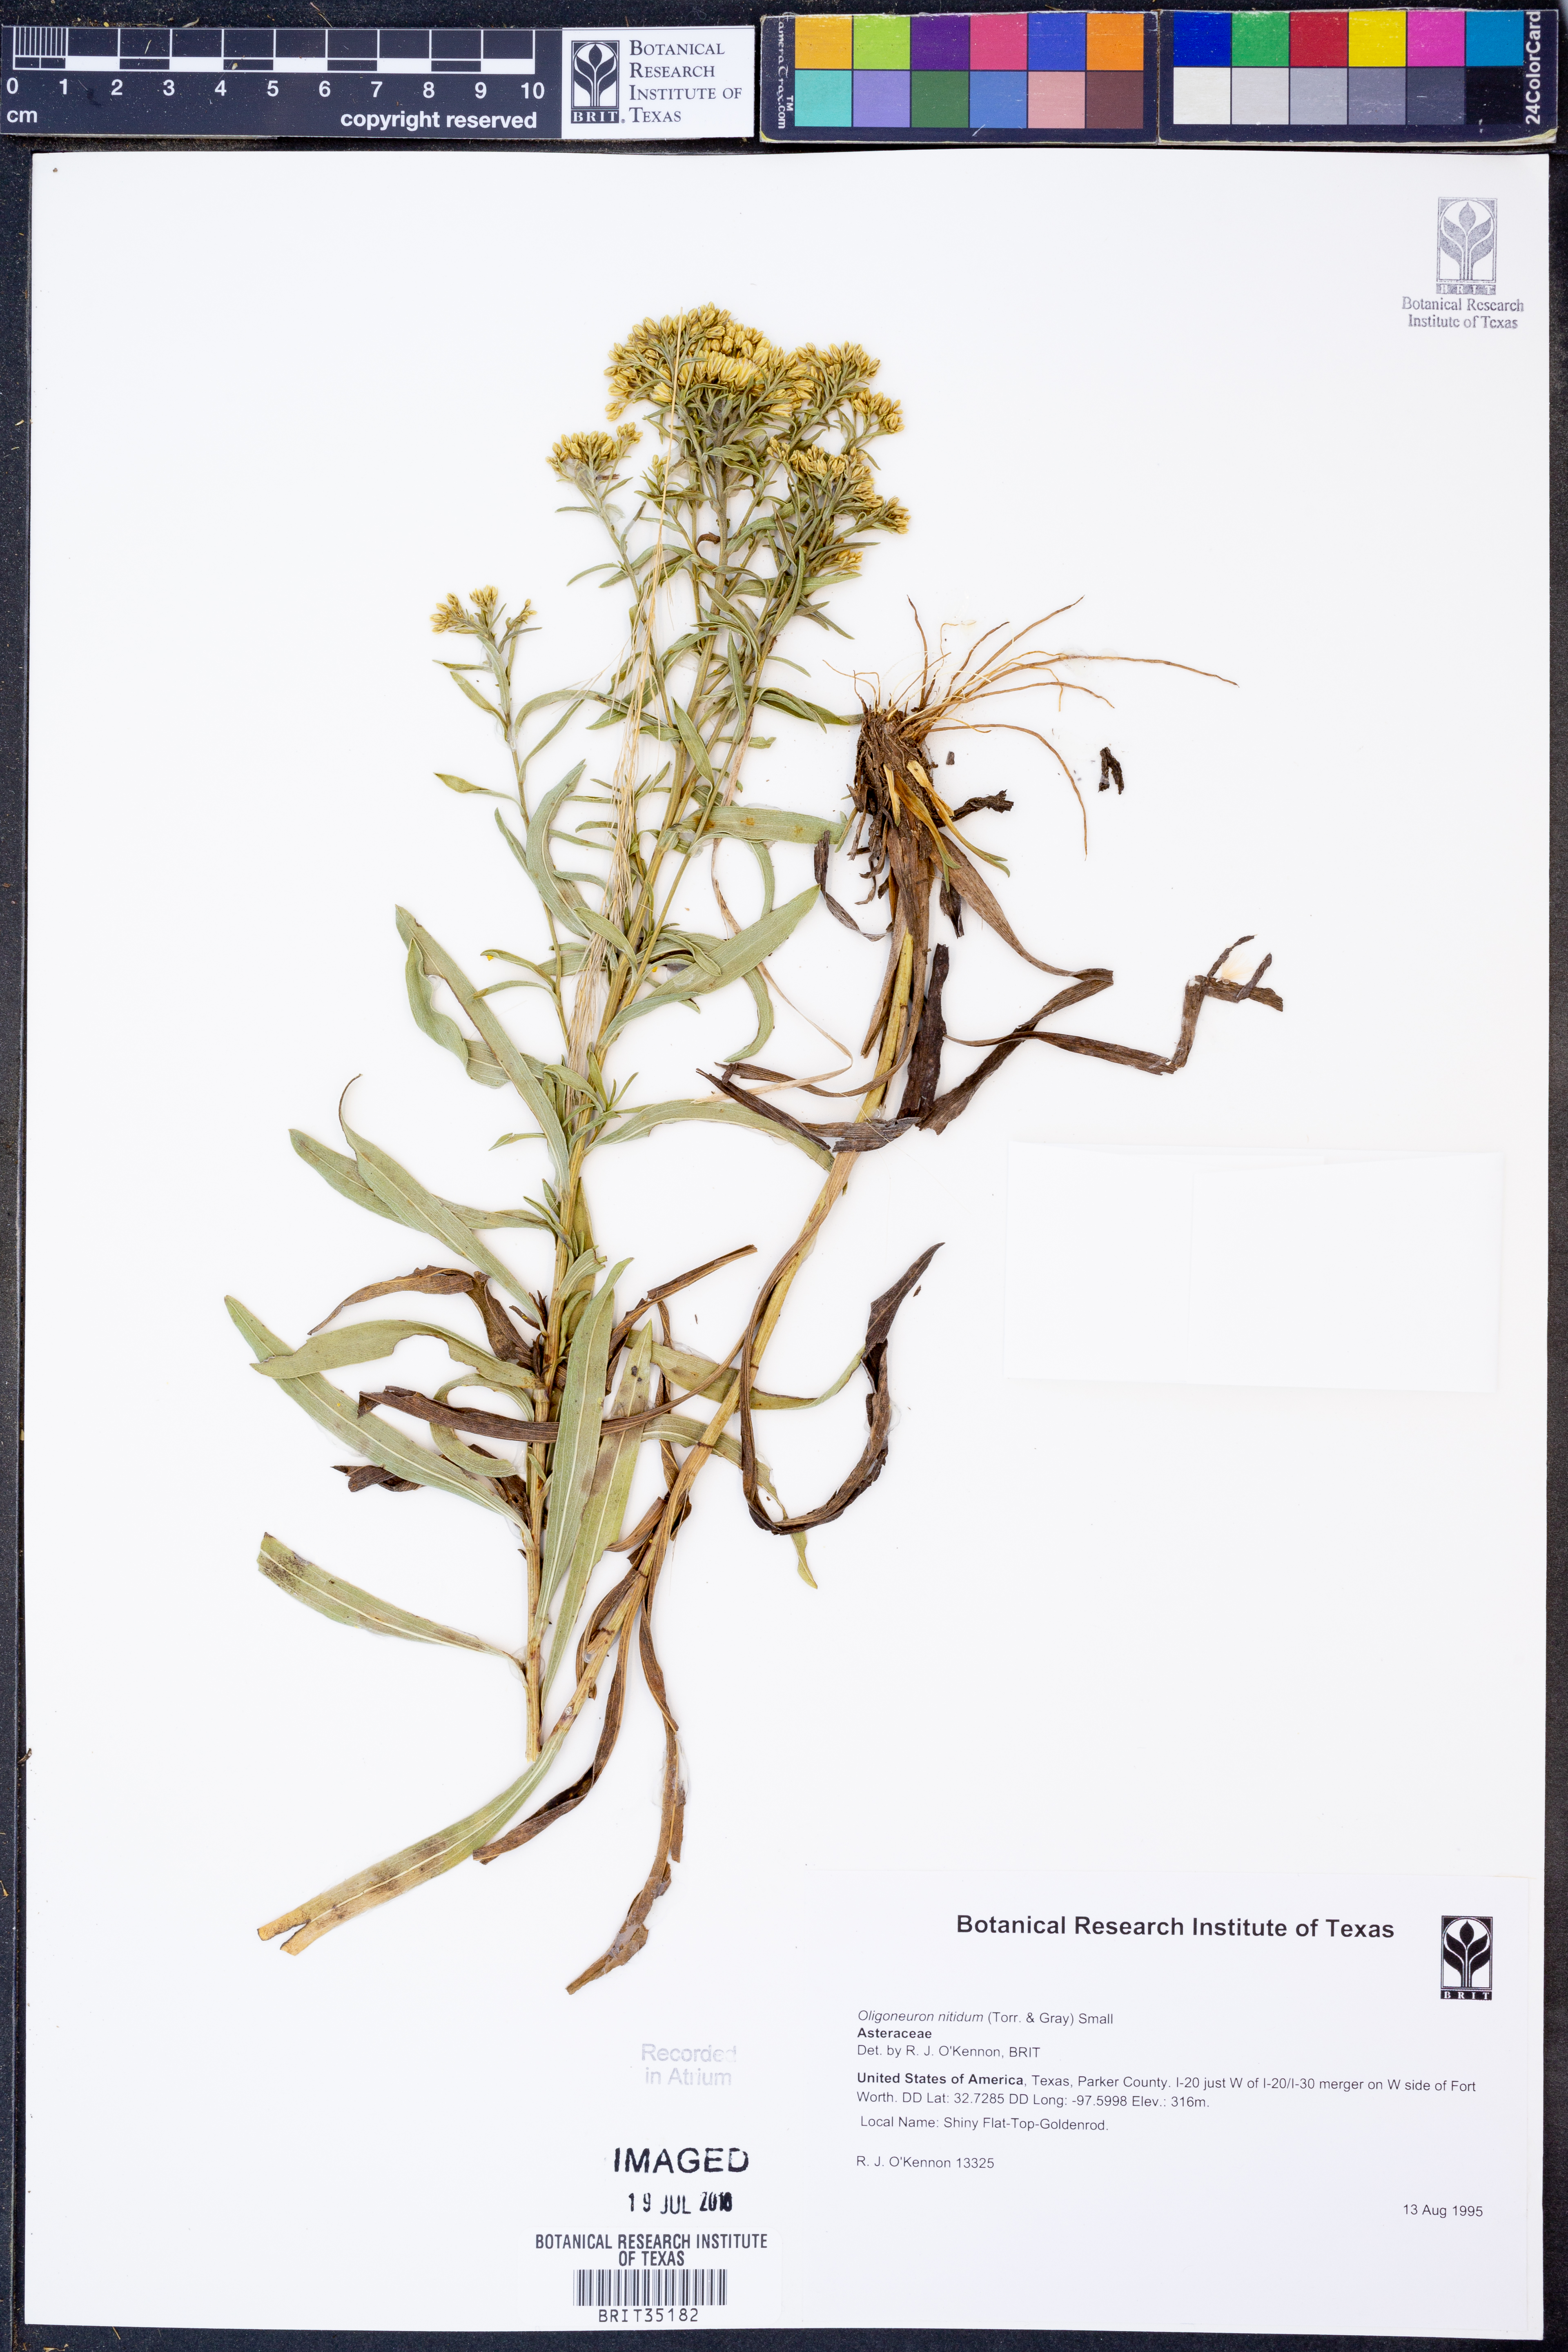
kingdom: Plantae
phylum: Tracheophyta
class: Magnoliopsida
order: Asterales
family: Asteraceae
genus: Solidago
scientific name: Solidago nitida
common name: Shiny goldenrod
